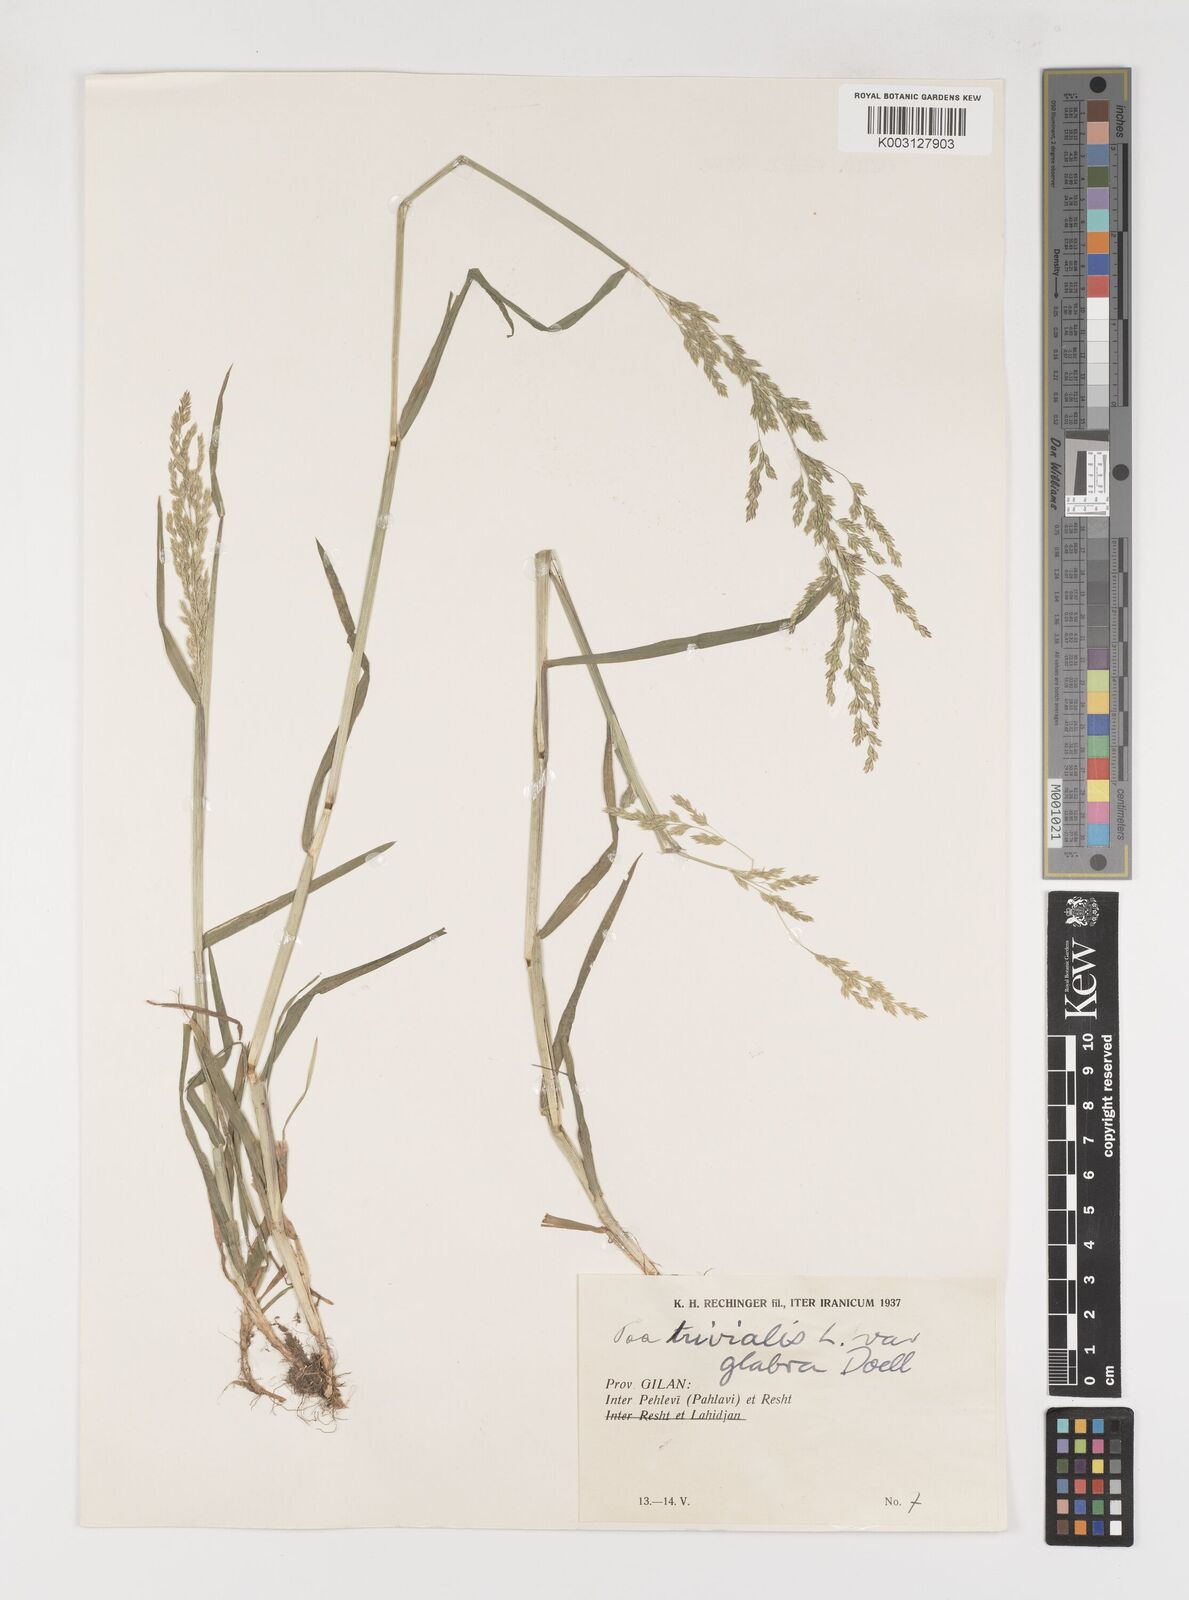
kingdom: Plantae
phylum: Tracheophyta
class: Liliopsida
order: Poales
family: Poaceae
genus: Poa
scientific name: Poa trivialis
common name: Rough bluegrass
